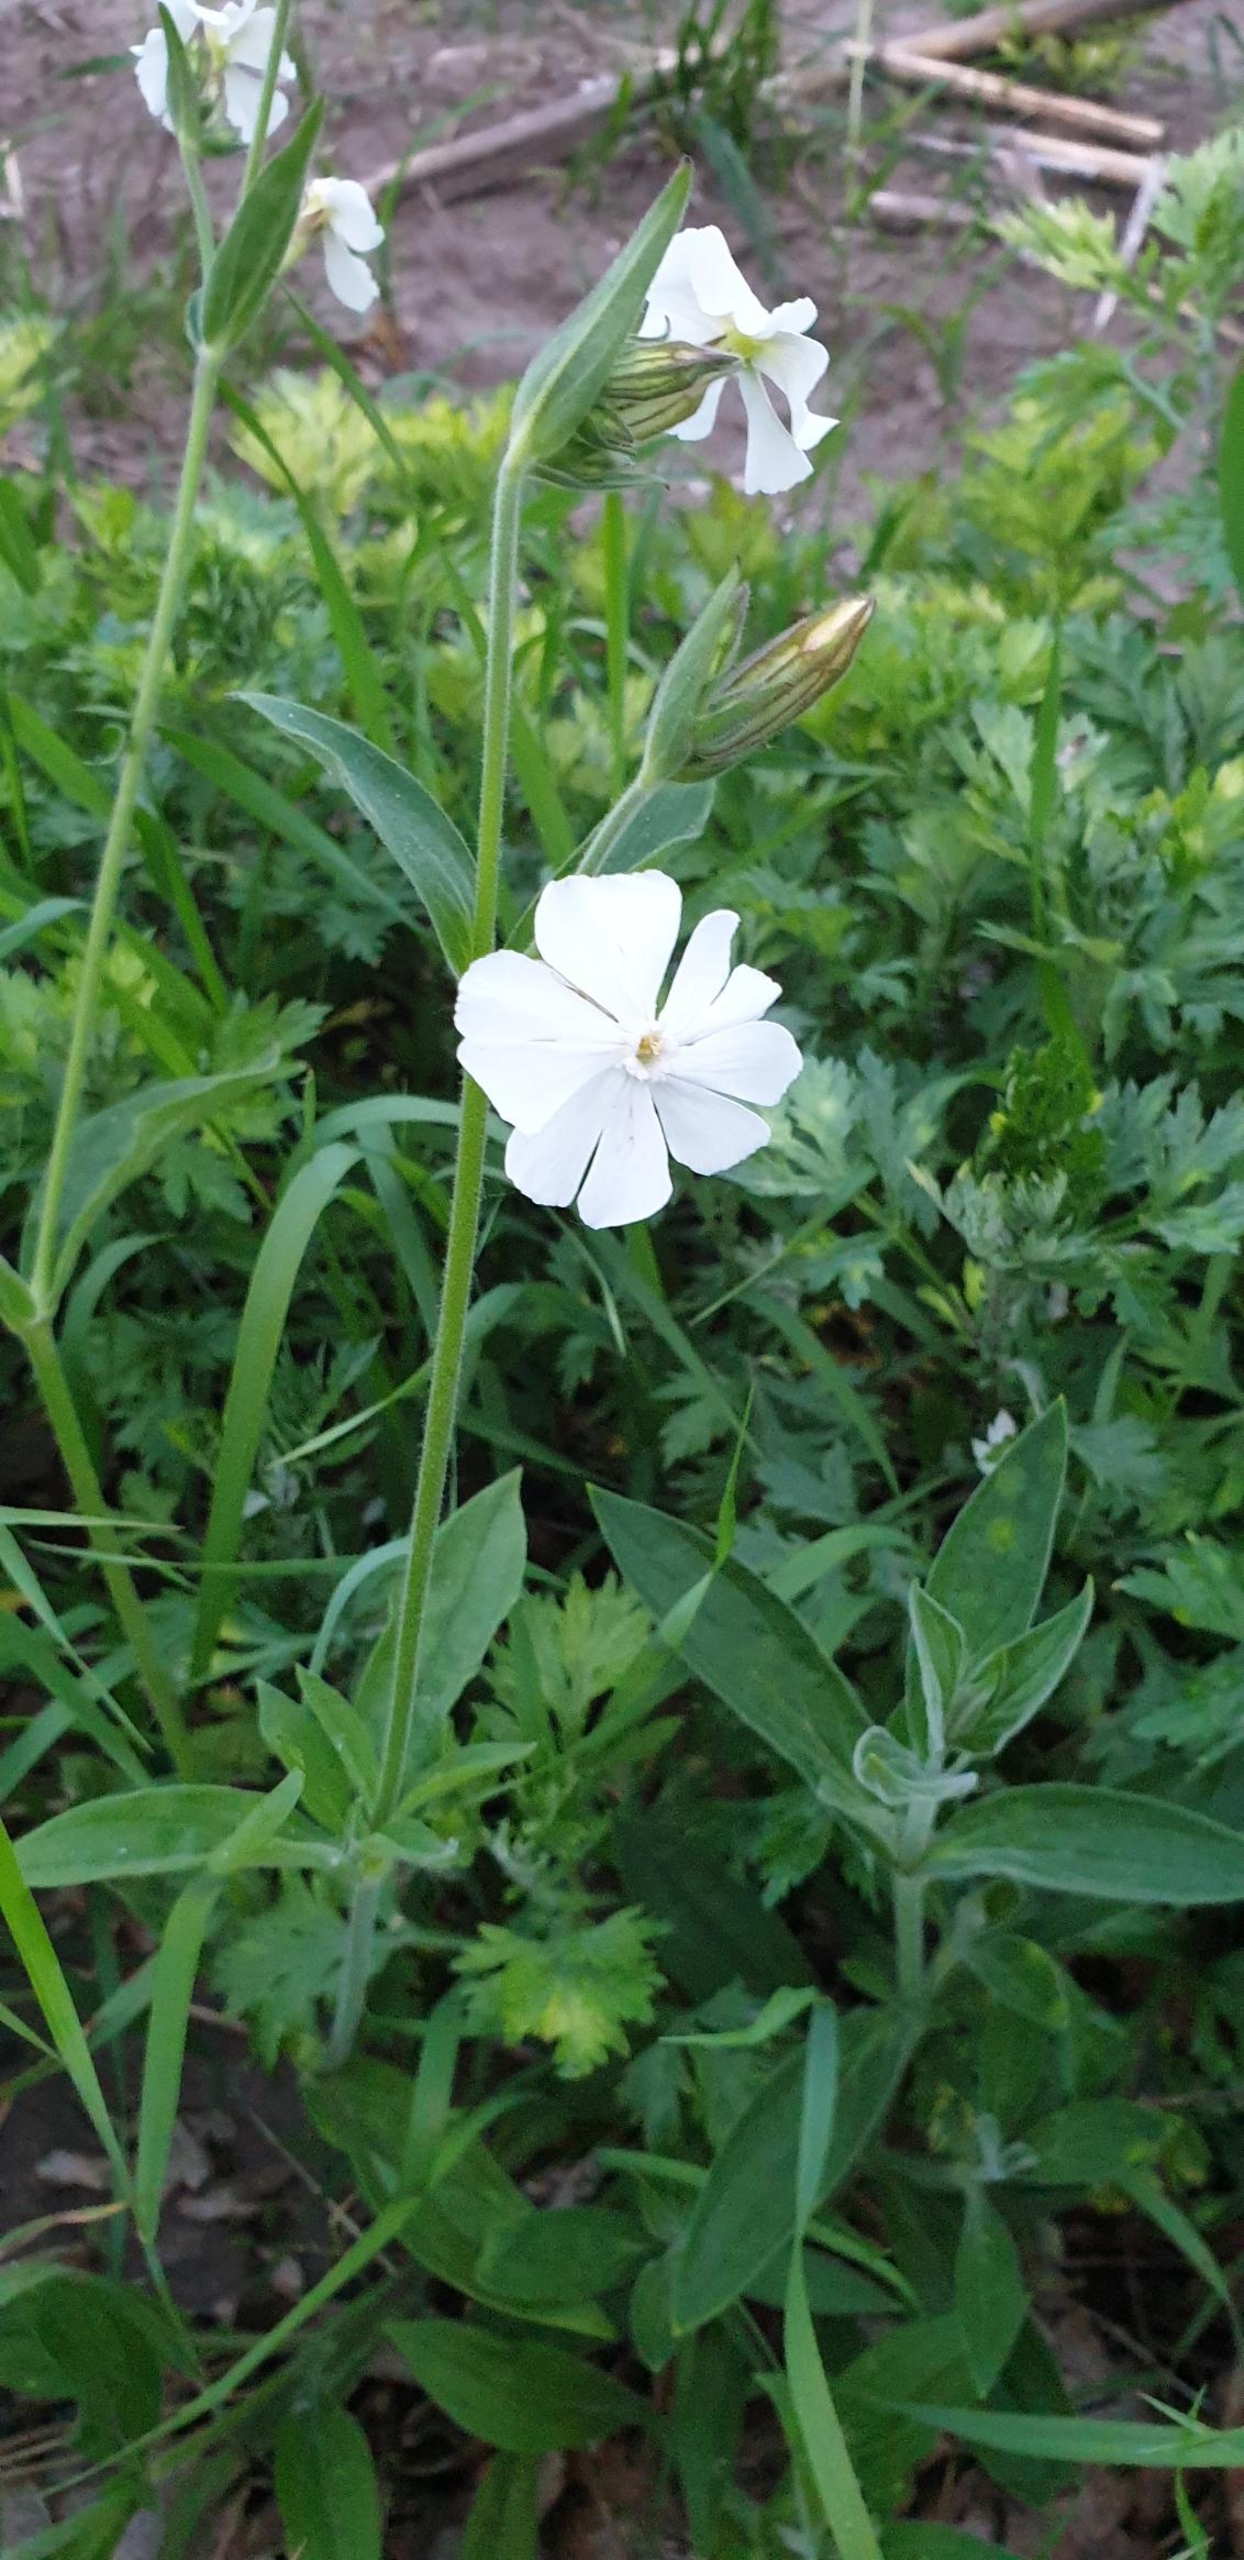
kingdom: Plantae
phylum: Tracheophyta
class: Magnoliopsida
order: Caryophyllales
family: Caryophyllaceae
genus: Silene
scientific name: Silene latifolia
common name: Aftenpragtstjerne
